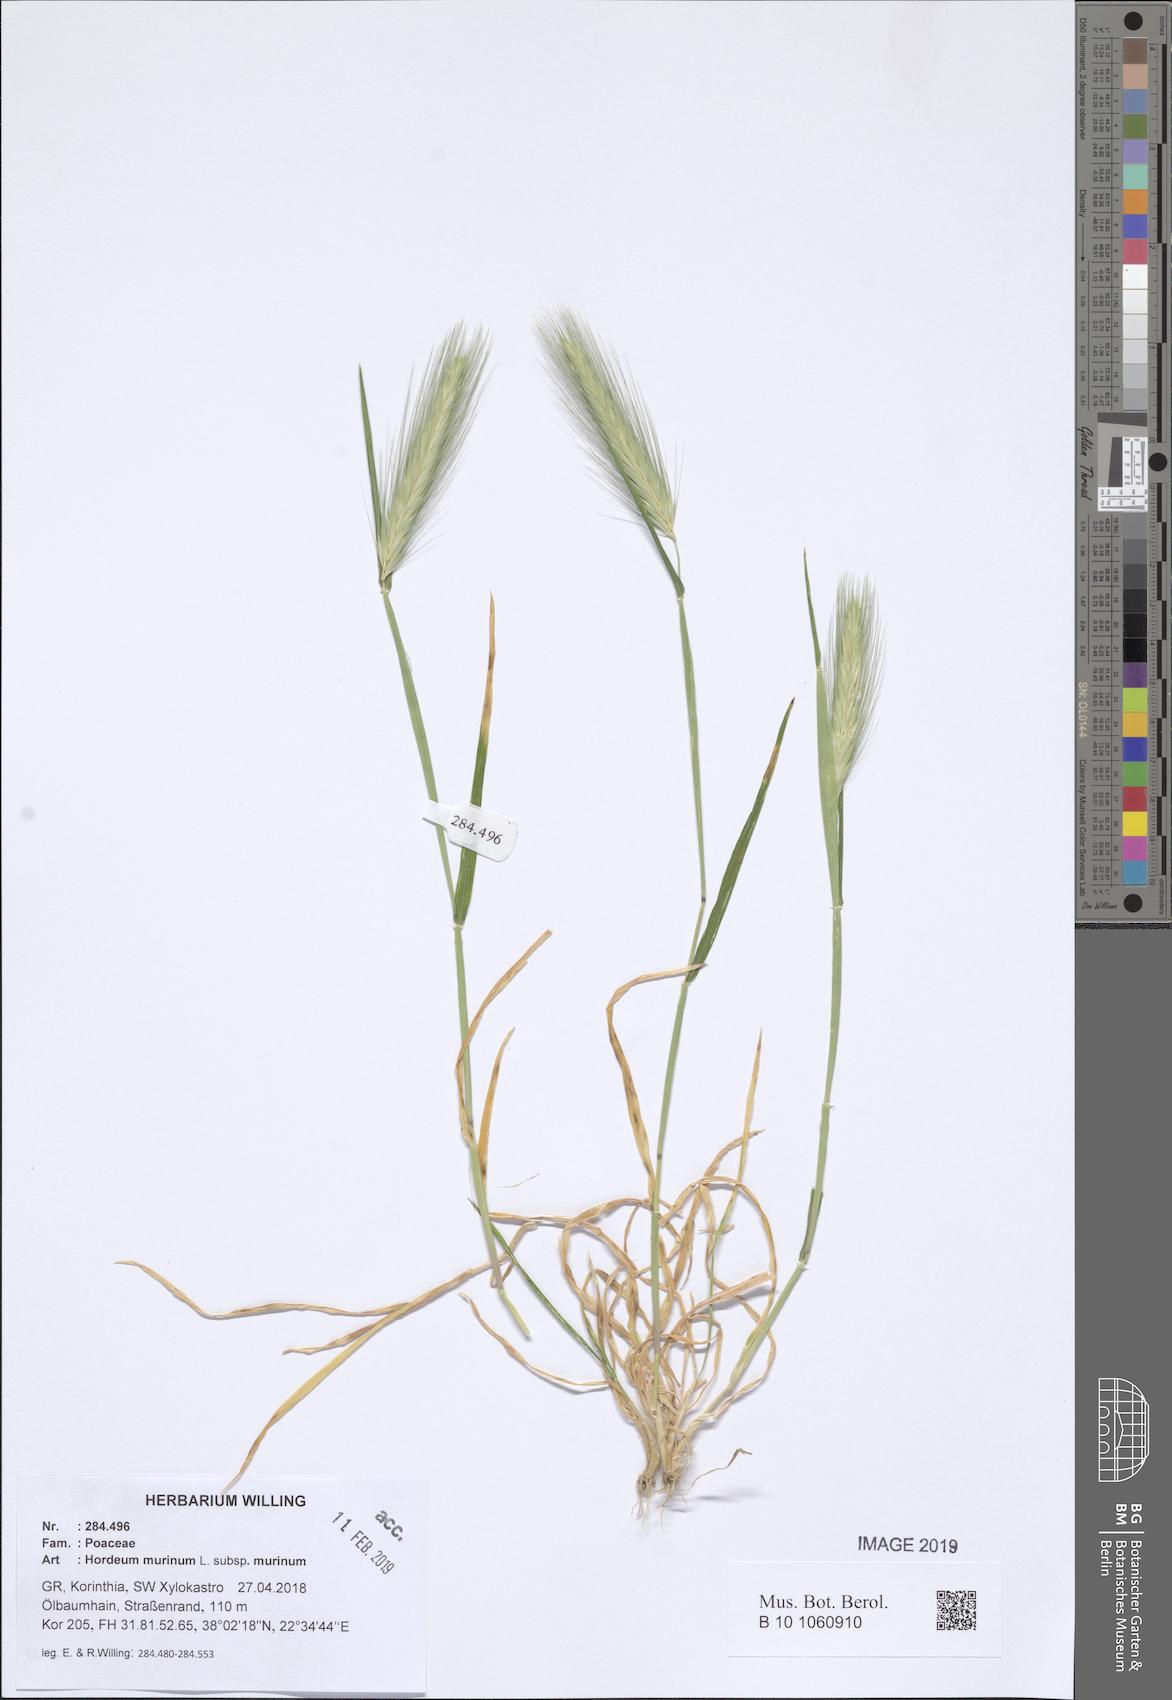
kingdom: Plantae
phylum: Tracheophyta
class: Liliopsida
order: Poales
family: Poaceae
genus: Hordeum
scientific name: Hordeum murinum
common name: Wall barley
